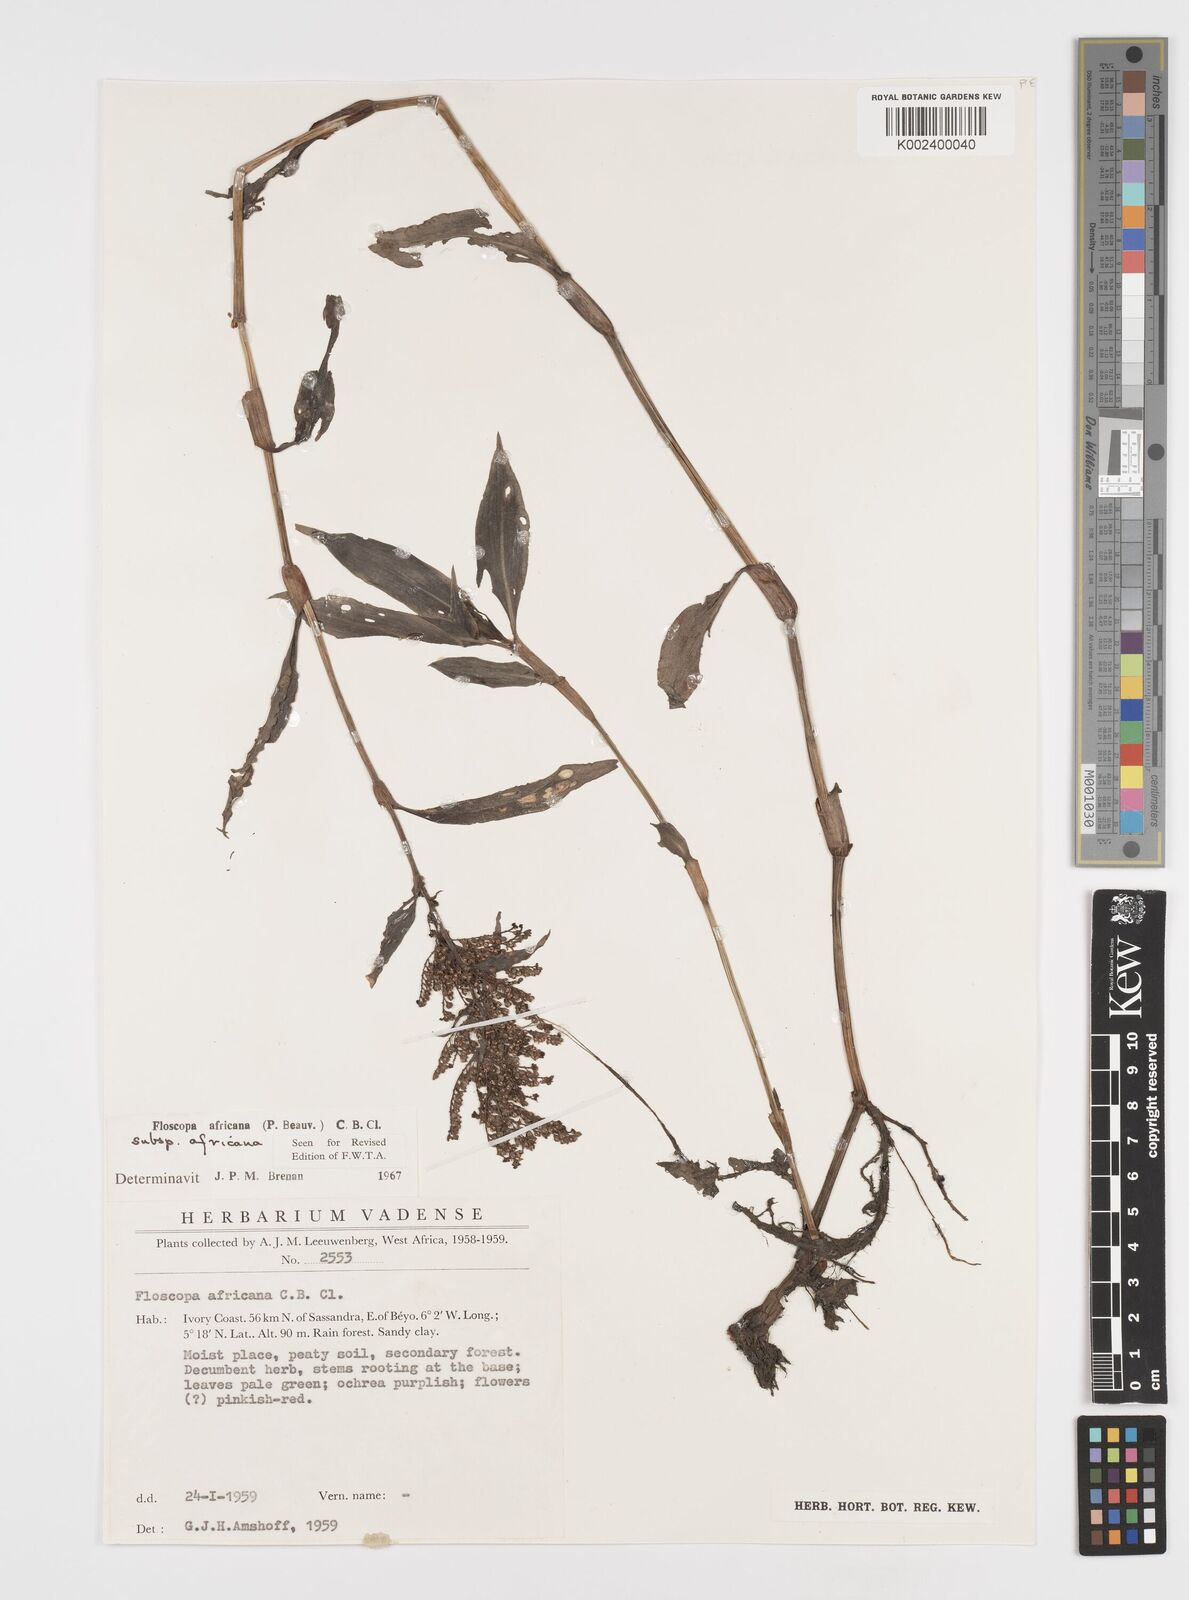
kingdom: Plantae
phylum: Tracheophyta
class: Liliopsida
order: Commelinales
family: Commelinaceae
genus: Floscopa
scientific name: Floscopa africana
